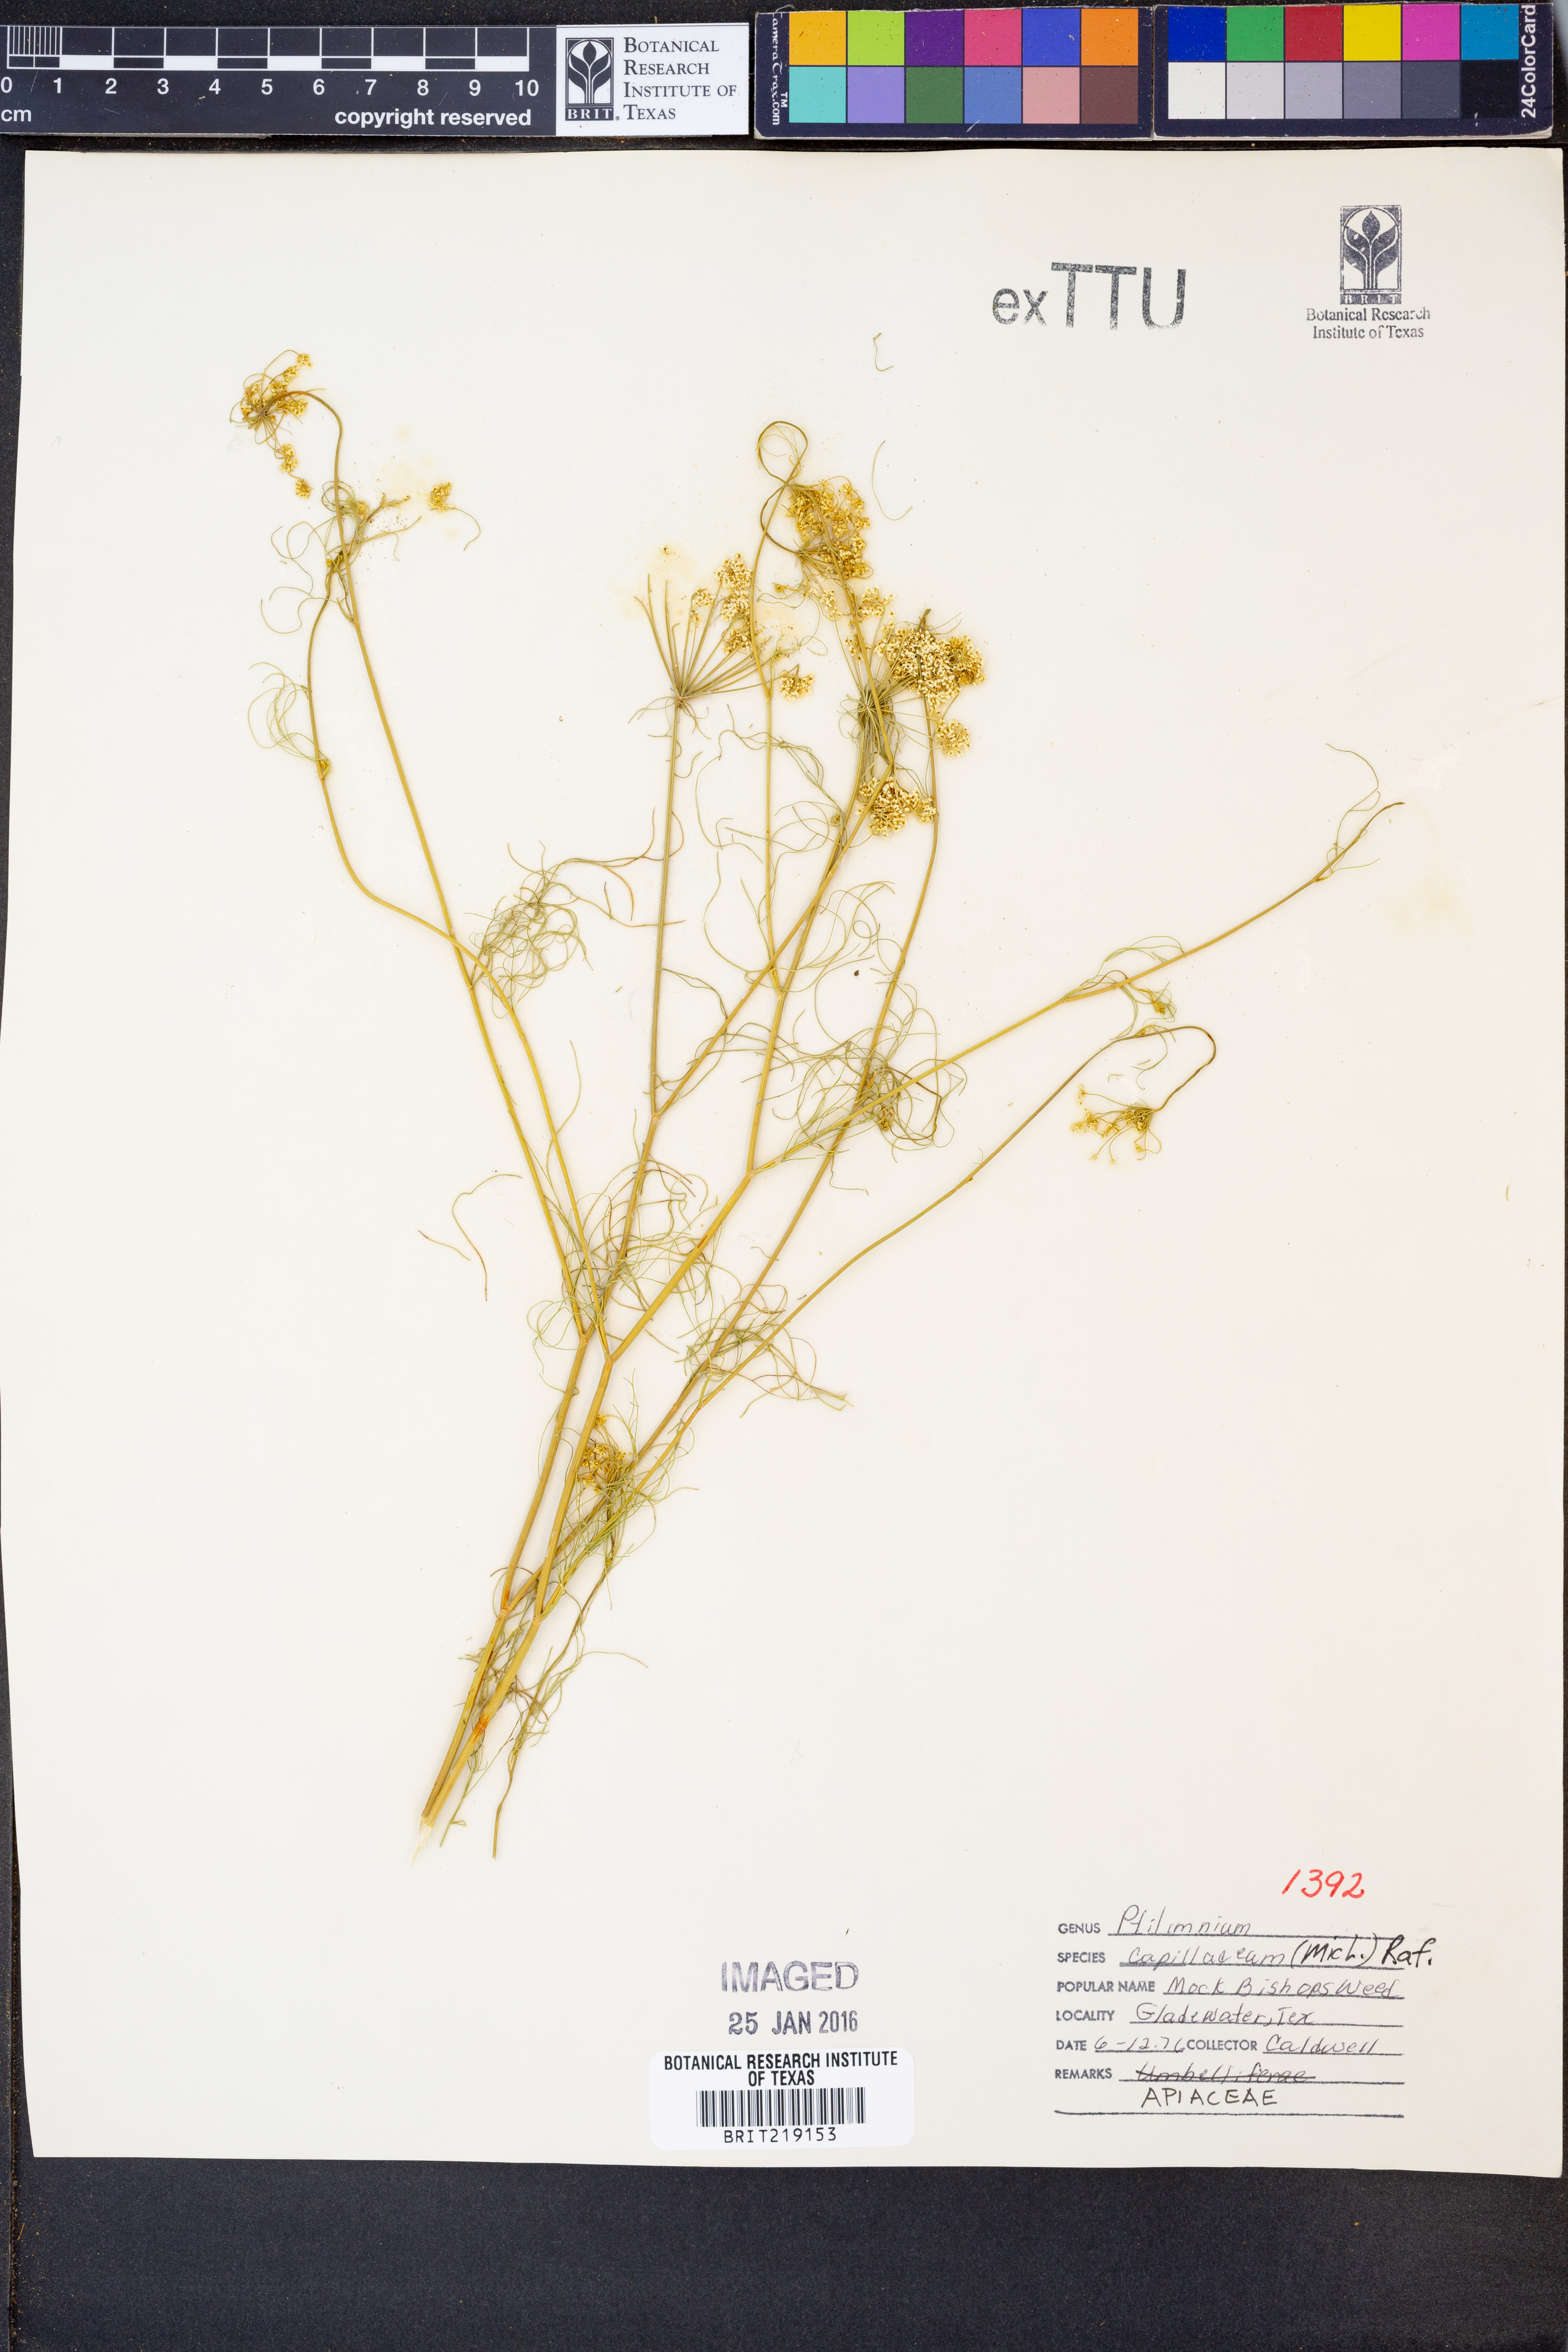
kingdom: Plantae
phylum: Tracheophyta
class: Magnoliopsida
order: Apiales
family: Apiaceae
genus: Ptilimnium
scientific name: Ptilimnium capillaceum
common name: Herbwilliam
